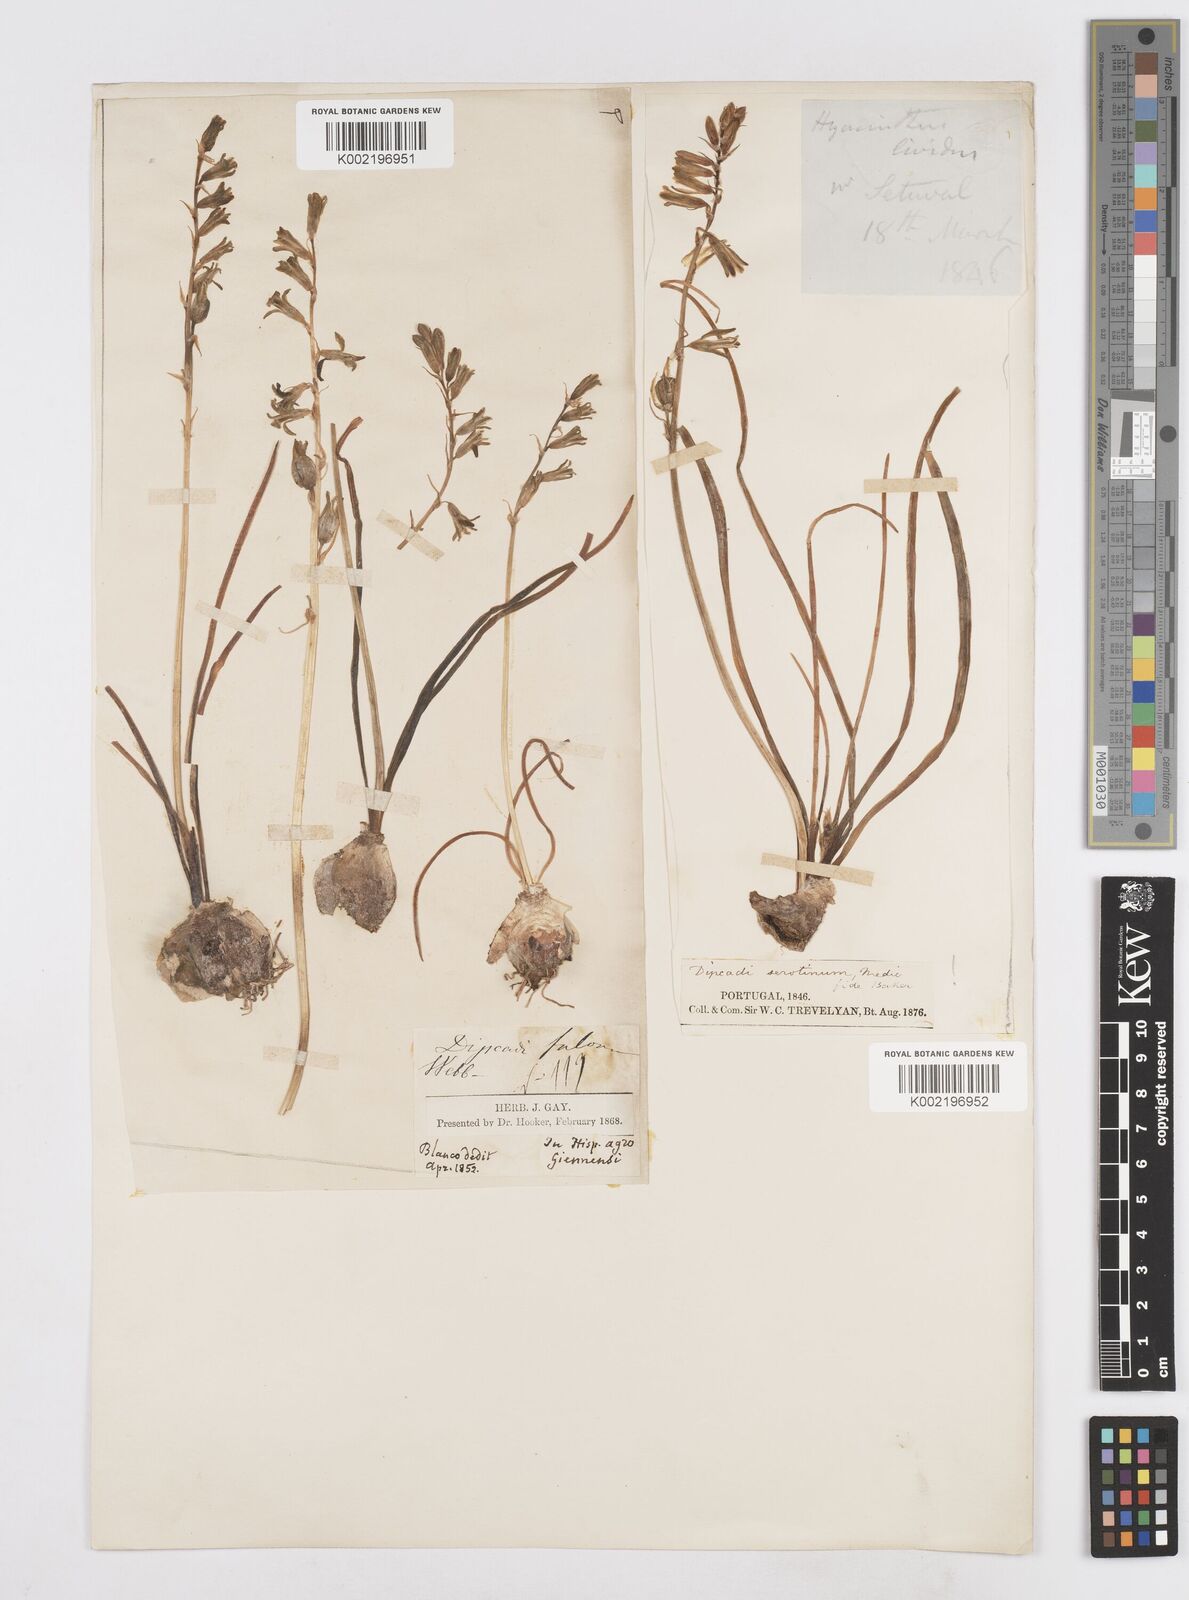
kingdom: Plantae
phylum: Tracheophyta
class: Liliopsida
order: Asparagales
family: Asparagaceae
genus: Dipcadi
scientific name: Dipcadi serotinum
